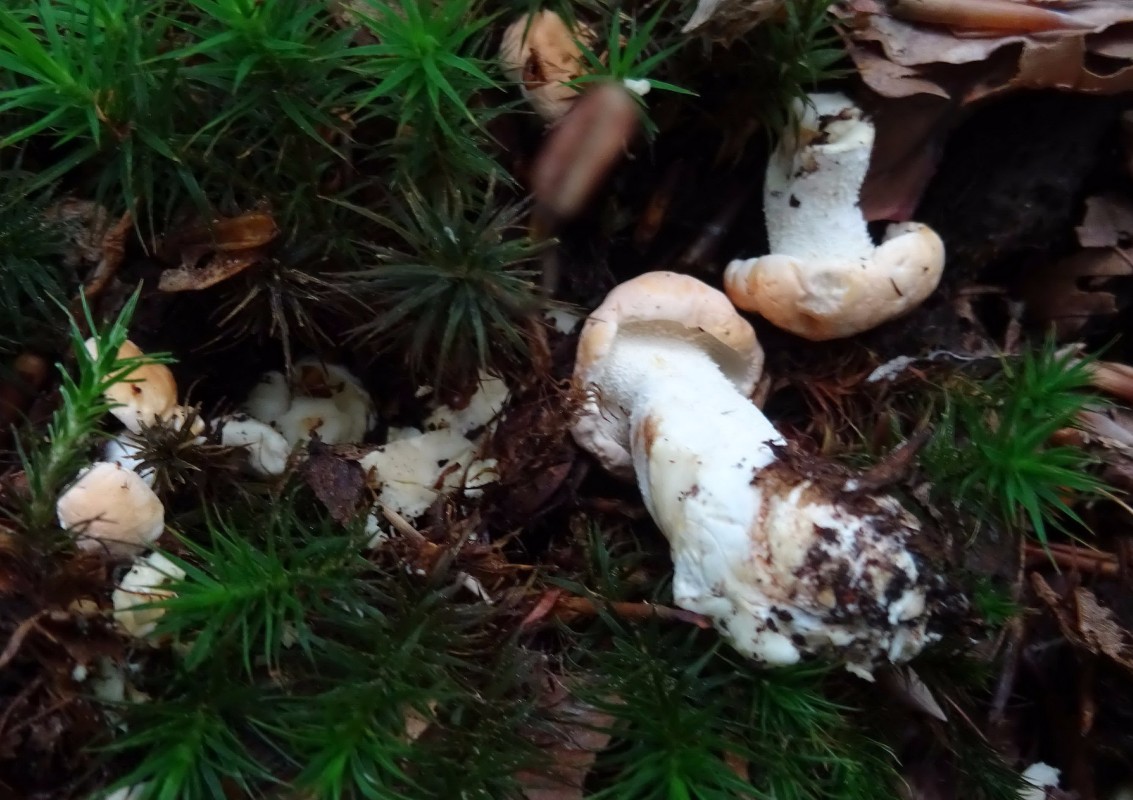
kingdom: Fungi
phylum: Basidiomycota
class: Agaricomycetes
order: Cantharellales
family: Hydnaceae
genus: Hydnum
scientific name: Hydnum
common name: pigsvamp
